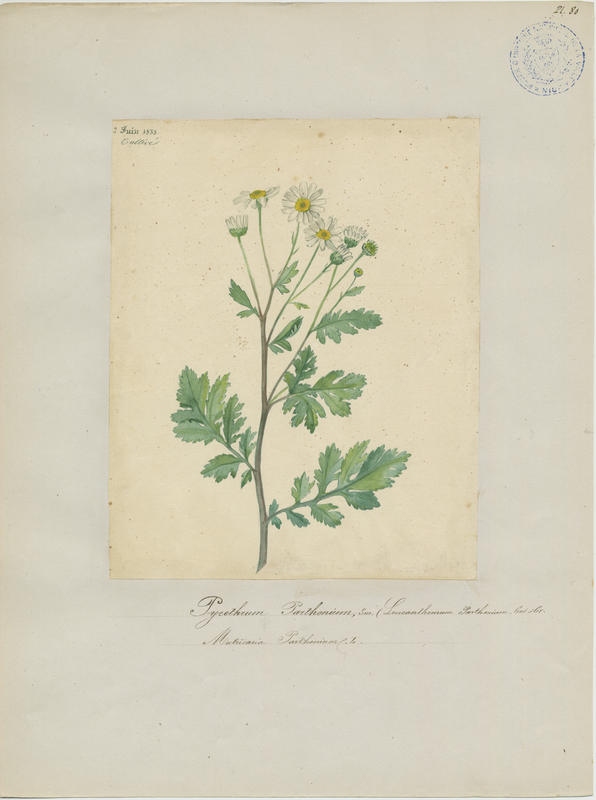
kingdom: Plantae
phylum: Tracheophyta
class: Magnoliopsida
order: Asterales
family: Asteraceae
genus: Tanacetum
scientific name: Tanacetum parthenium
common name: Feverfew
